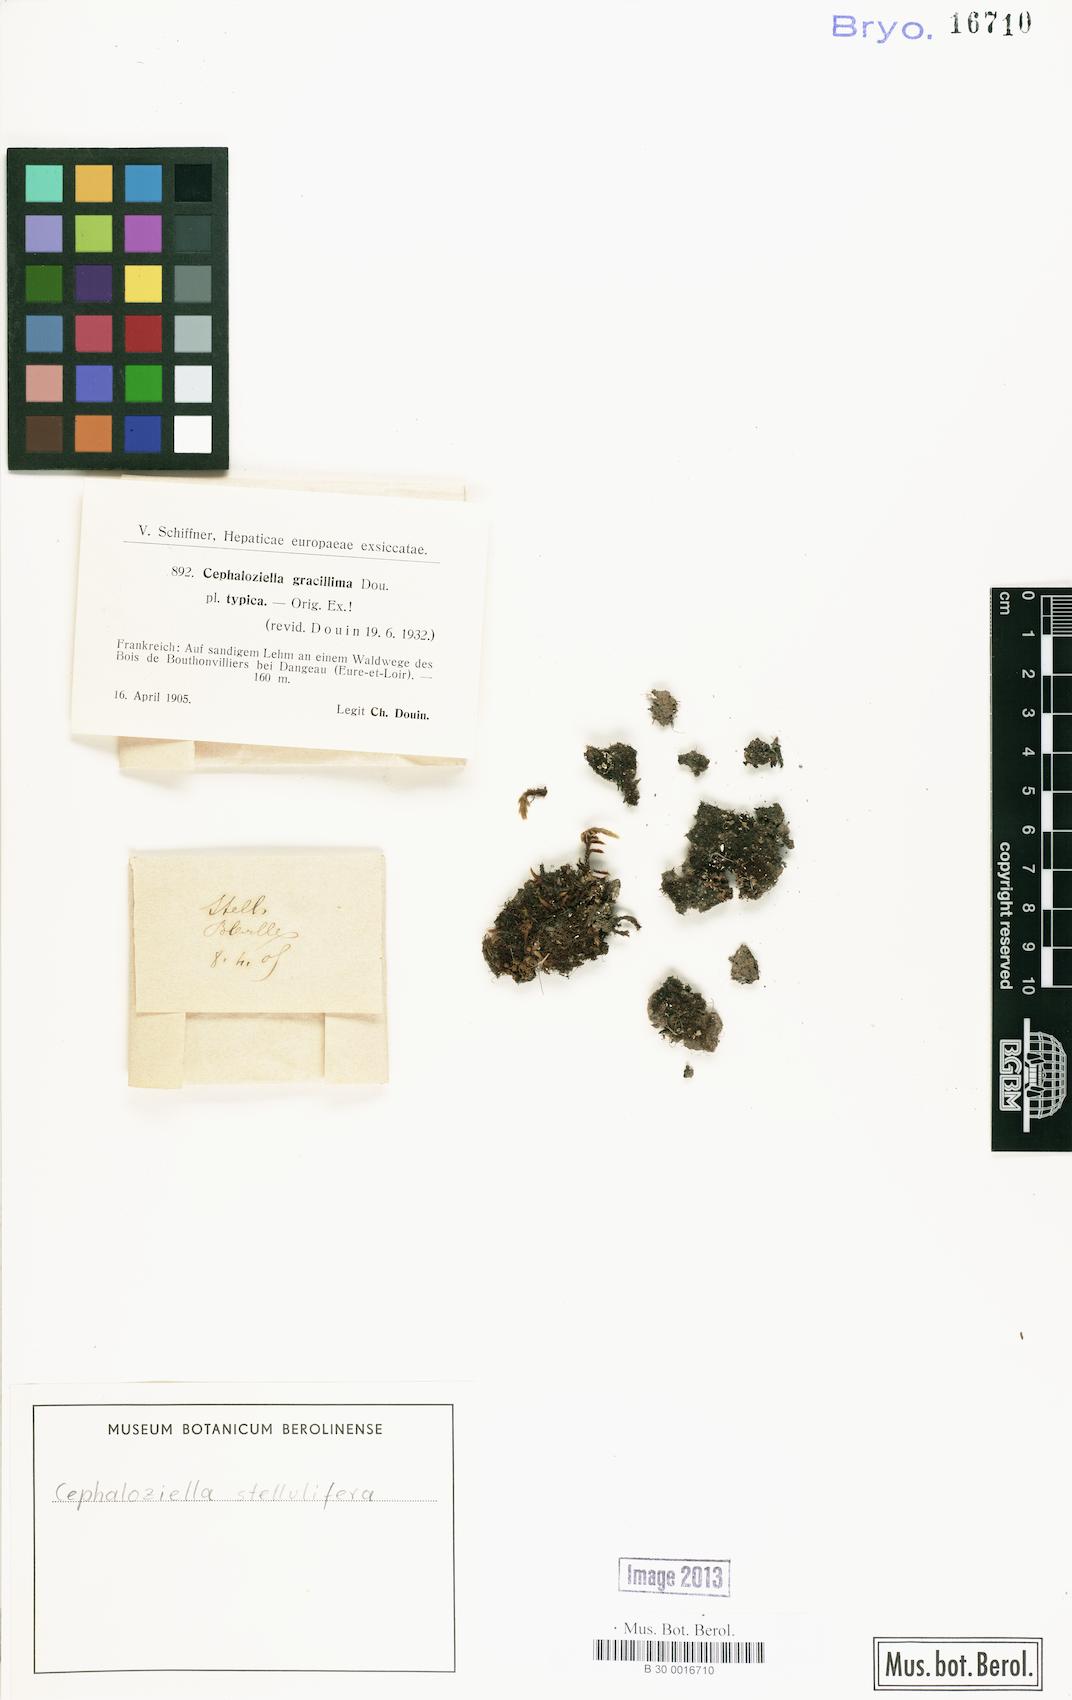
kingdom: Plantae
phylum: Marchantiophyta
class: Jungermanniopsida
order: Jungermanniales
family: Cephaloziellaceae
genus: Cephaloziella
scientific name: Cephaloziella stellulifera
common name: Heath threadwort
